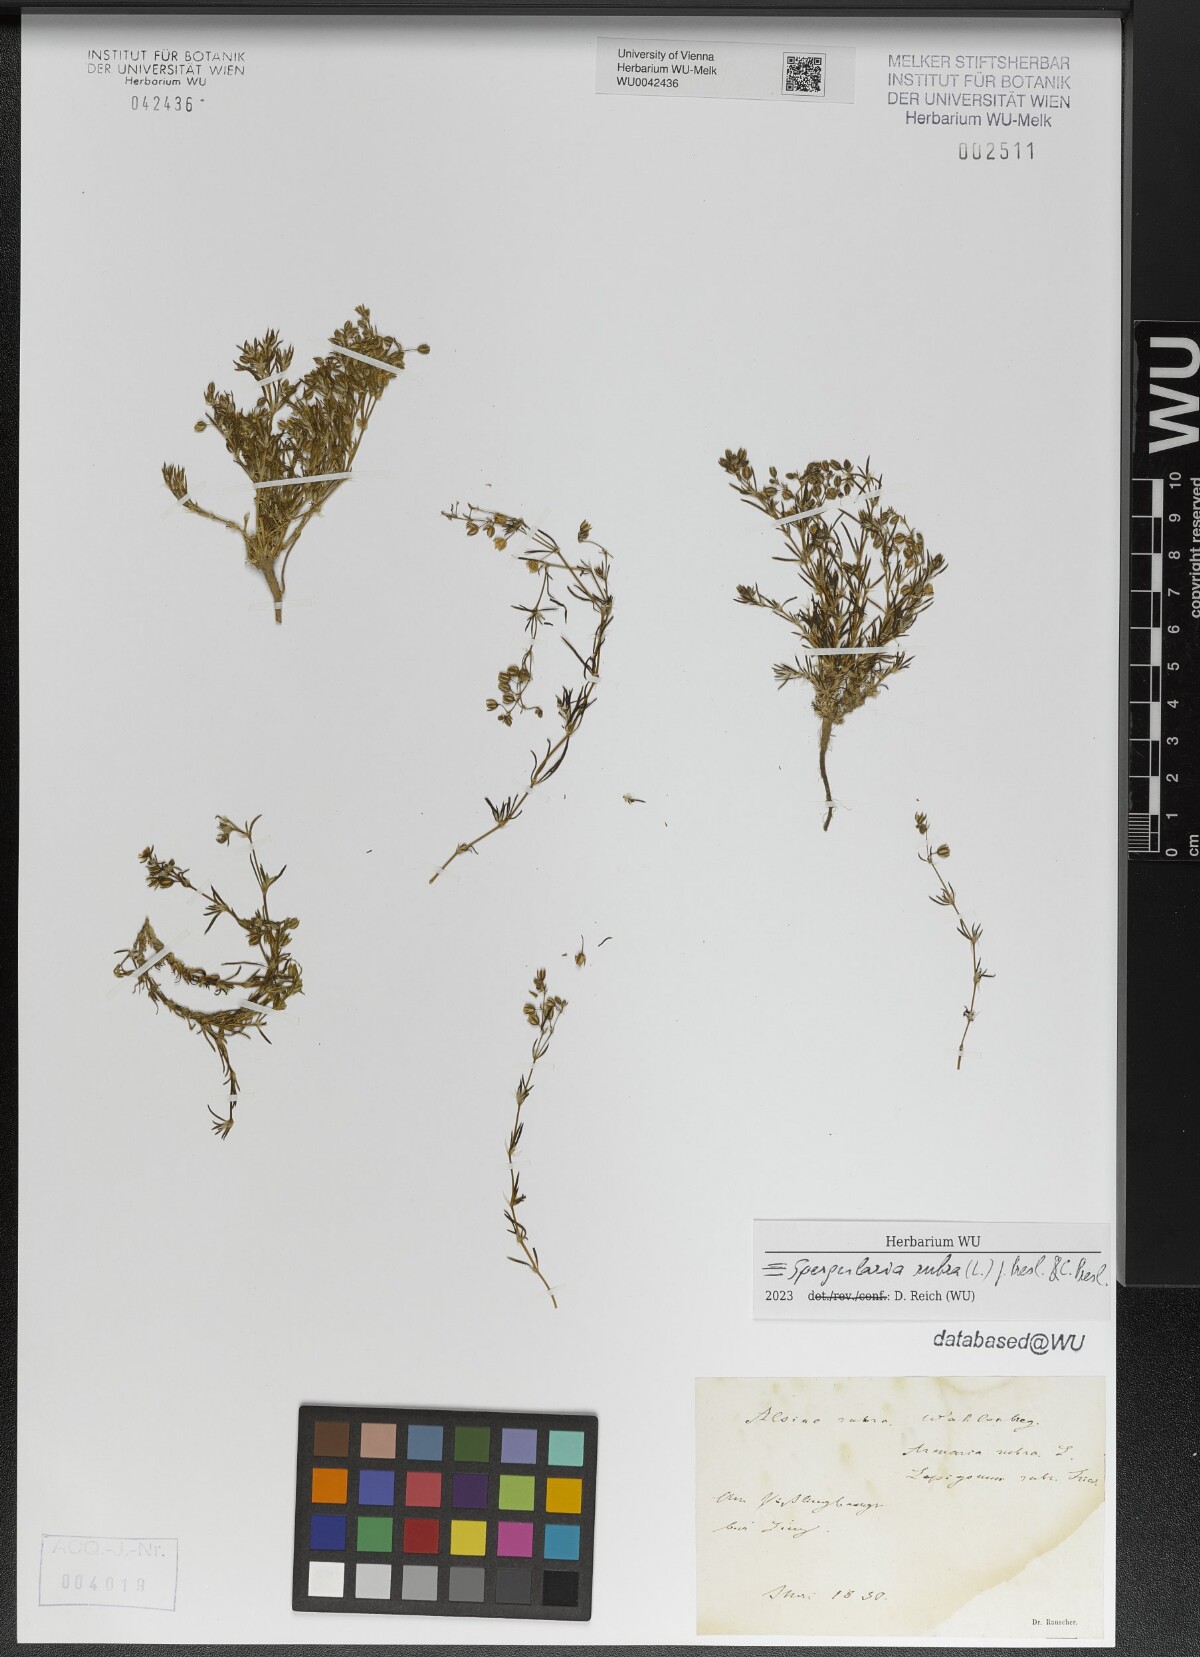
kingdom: Plantae
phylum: Tracheophyta
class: Magnoliopsida
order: Caryophyllales
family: Caryophyllaceae
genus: Spergularia
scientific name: Spergularia rubra
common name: Red sand-spurrey
